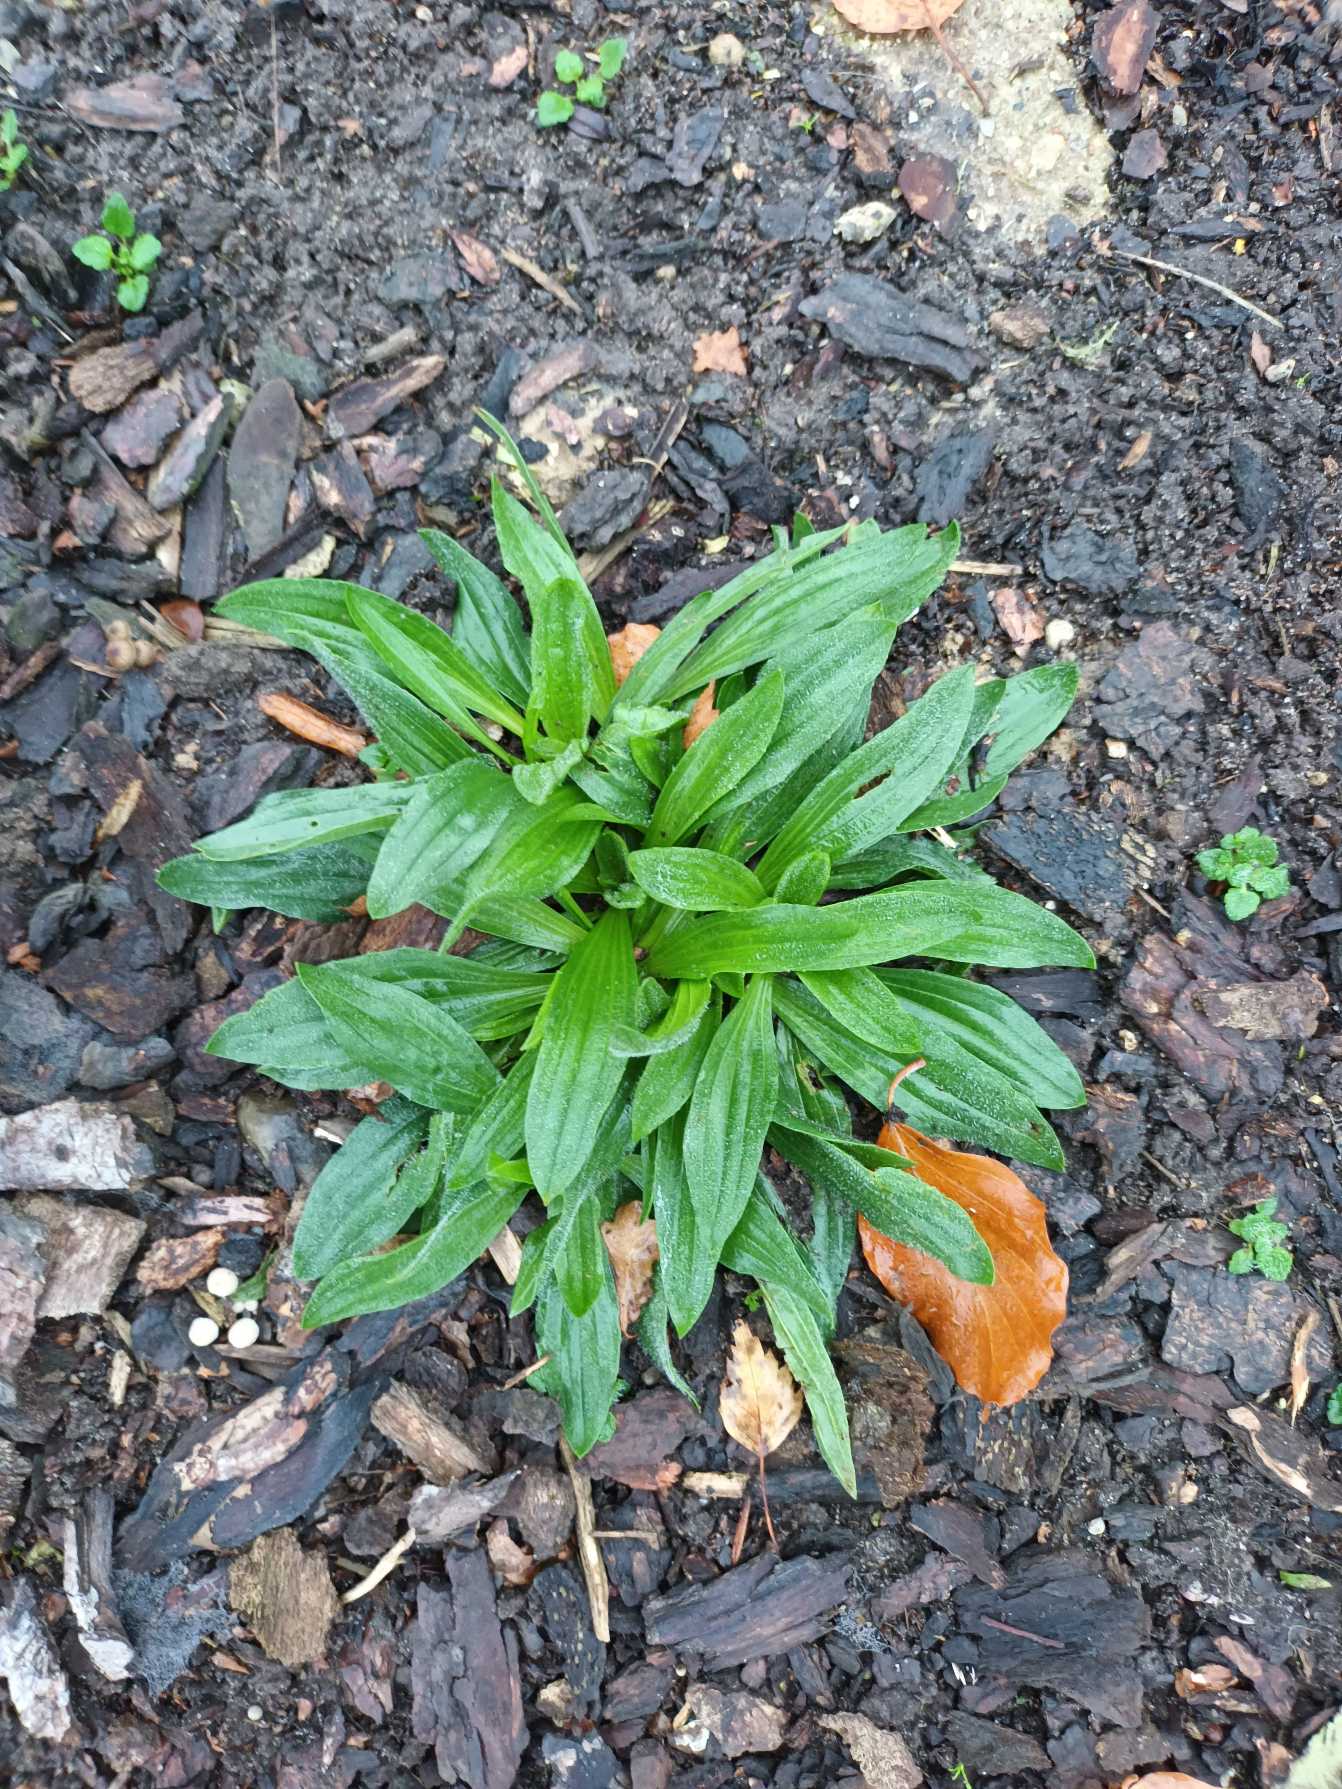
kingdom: Plantae
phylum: Tracheophyta
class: Magnoliopsida
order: Lamiales
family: Plantaginaceae
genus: Plantago
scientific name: Plantago lanceolata
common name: Lancet-vejbred
